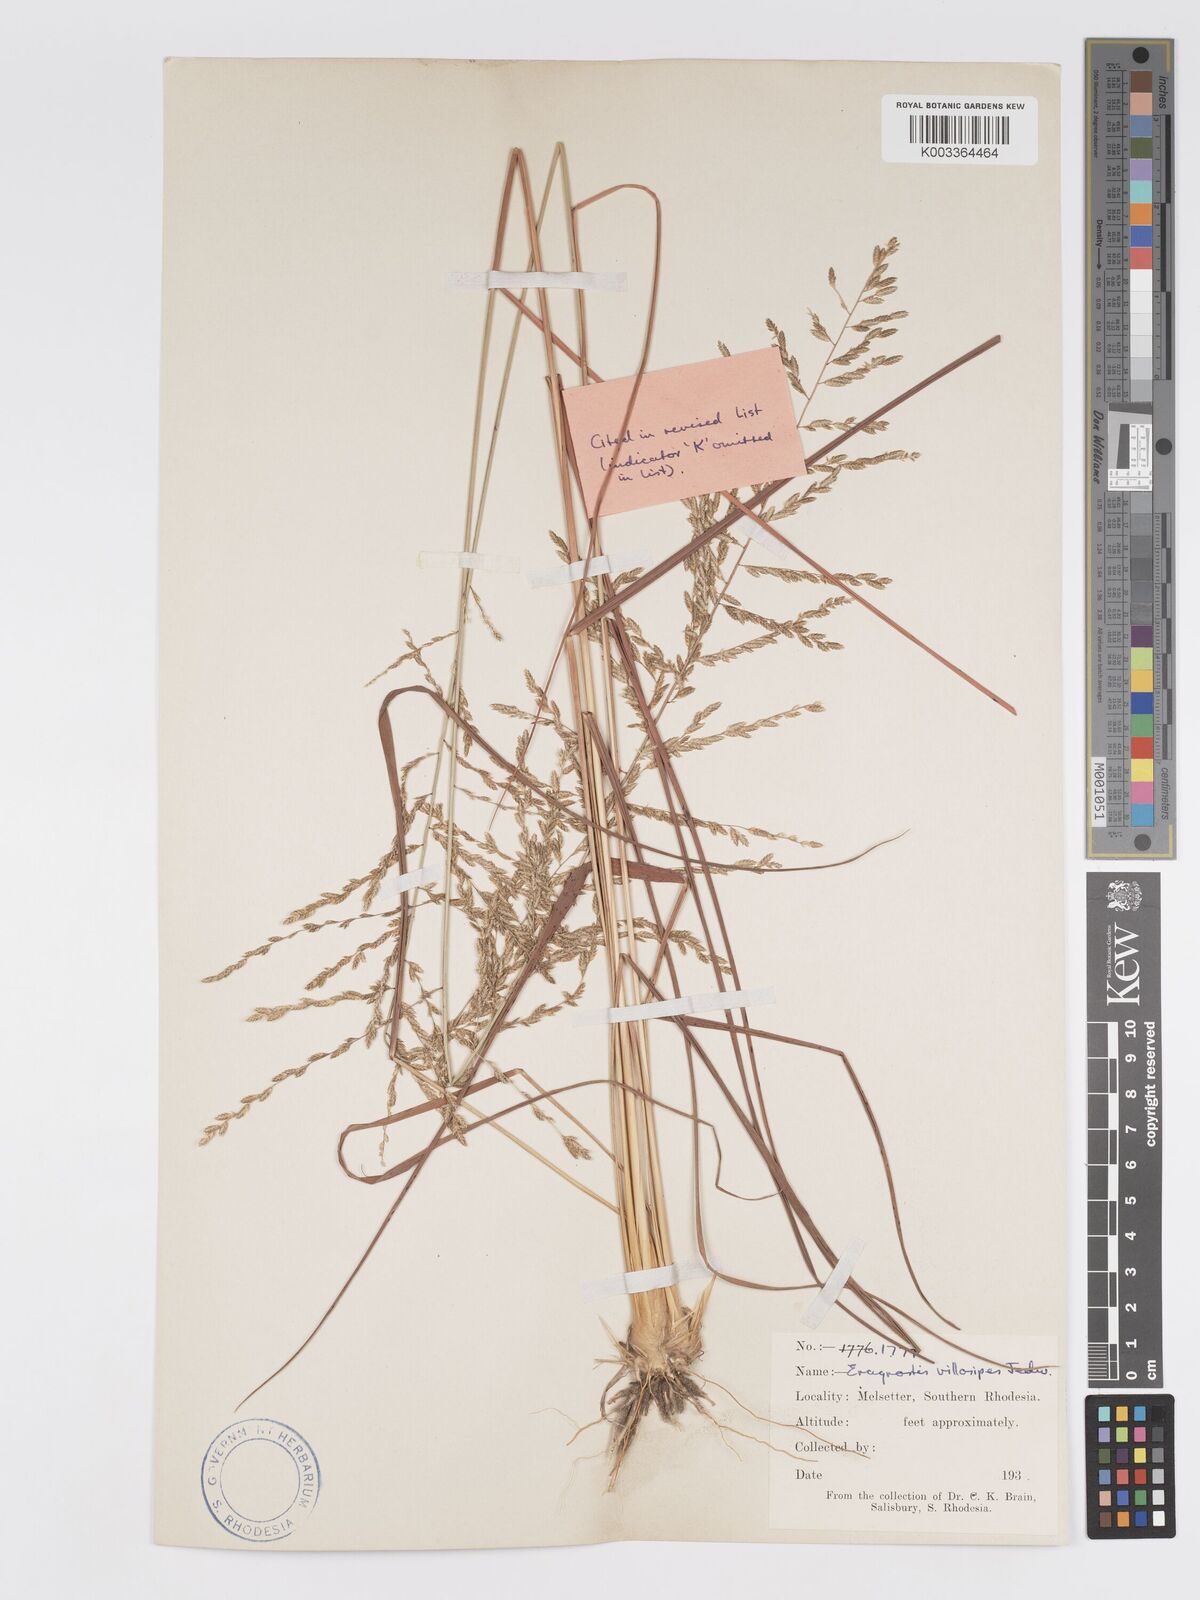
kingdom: Plantae
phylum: Tracheophyta
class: Liliopsida
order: Poales
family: Poaceae
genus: Eragrostis
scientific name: Eragrostis sclerantha
